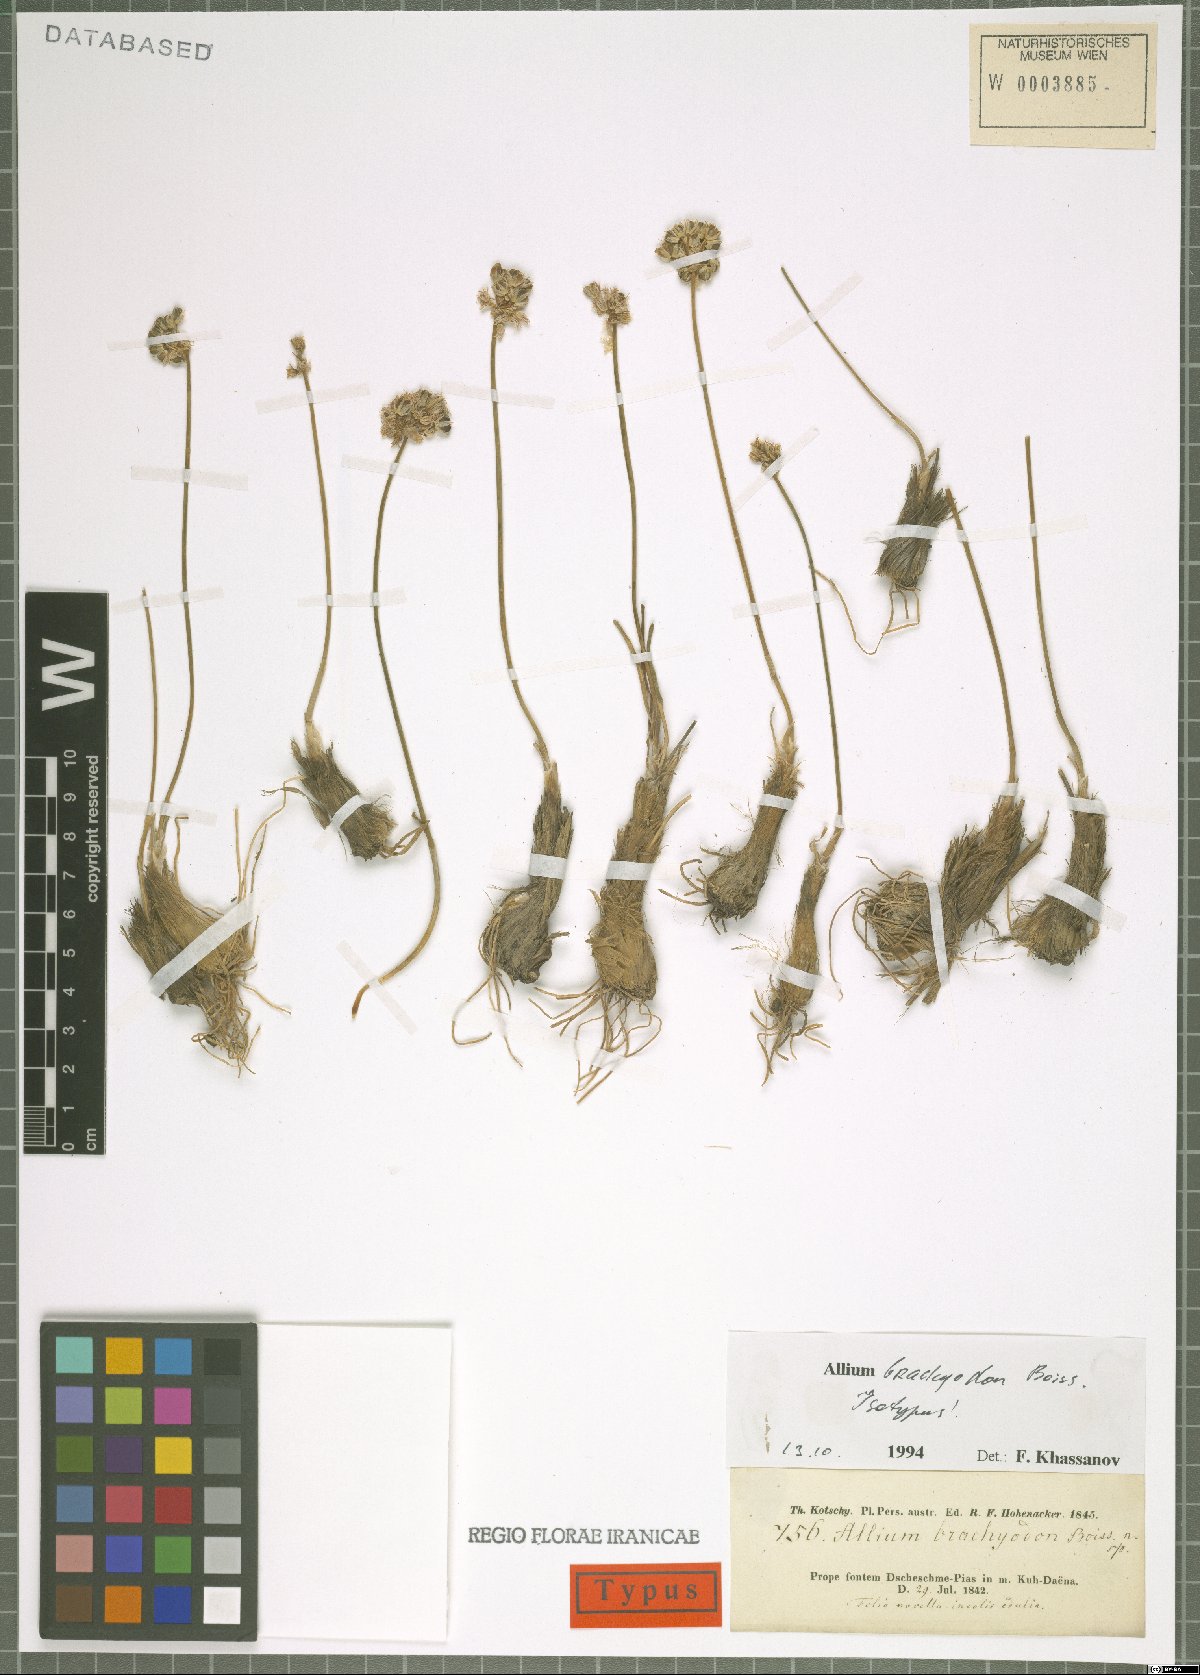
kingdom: Plantae
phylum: Tracheophyta
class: Liliopsida
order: Asparagales
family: Amaryllidaceae
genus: Allium
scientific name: Allium brachyodon
